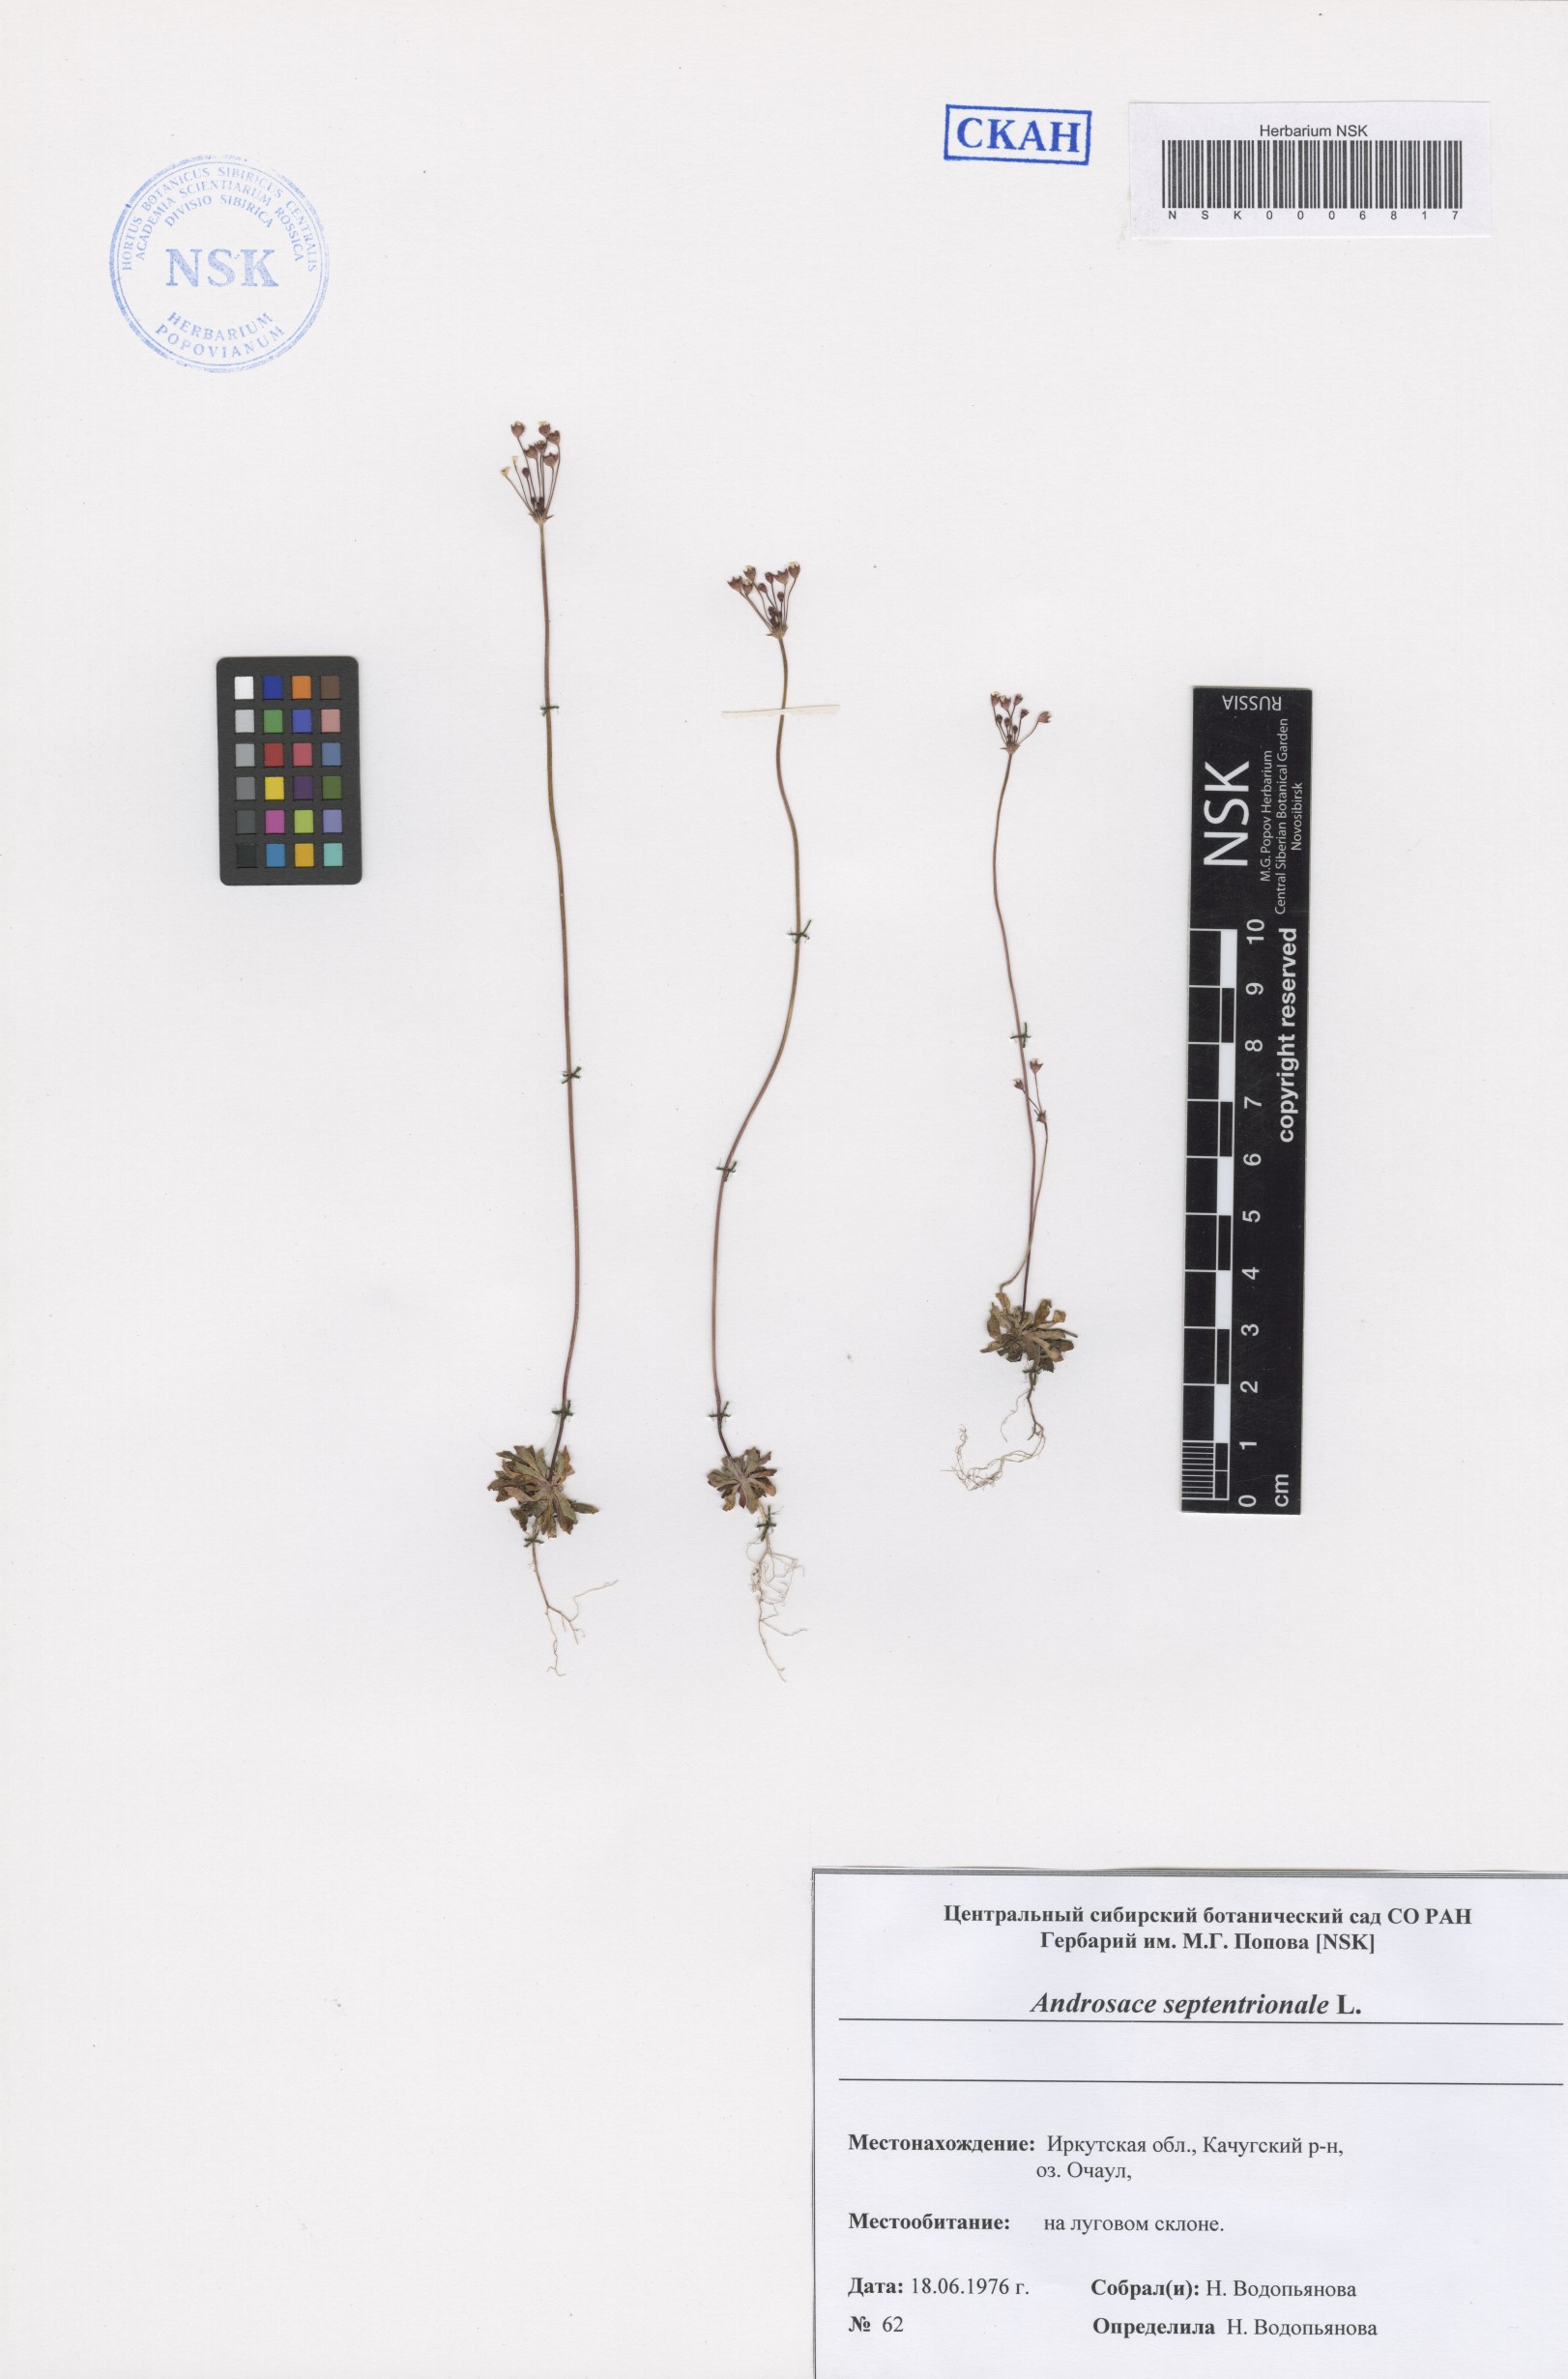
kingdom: Plantae
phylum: Tracheophyta
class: Magnoliopsida
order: Ericales
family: Primulaceae
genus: Androsace
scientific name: Androsace septentrionalis
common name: Hairy northern fairy-candelabra
